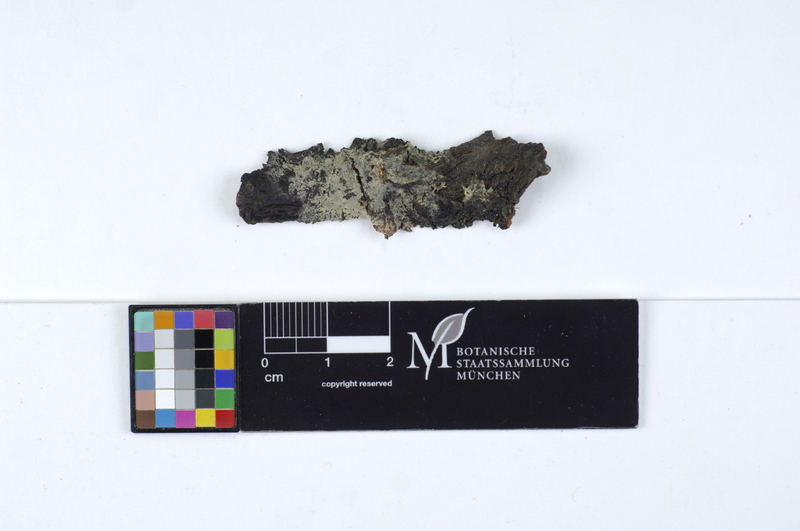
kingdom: Fungi
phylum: Basidiomycota
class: Agaricomycetes
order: Agaricales
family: Stephanosporaceae
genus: Cristinia
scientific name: Cristinia rhenana
